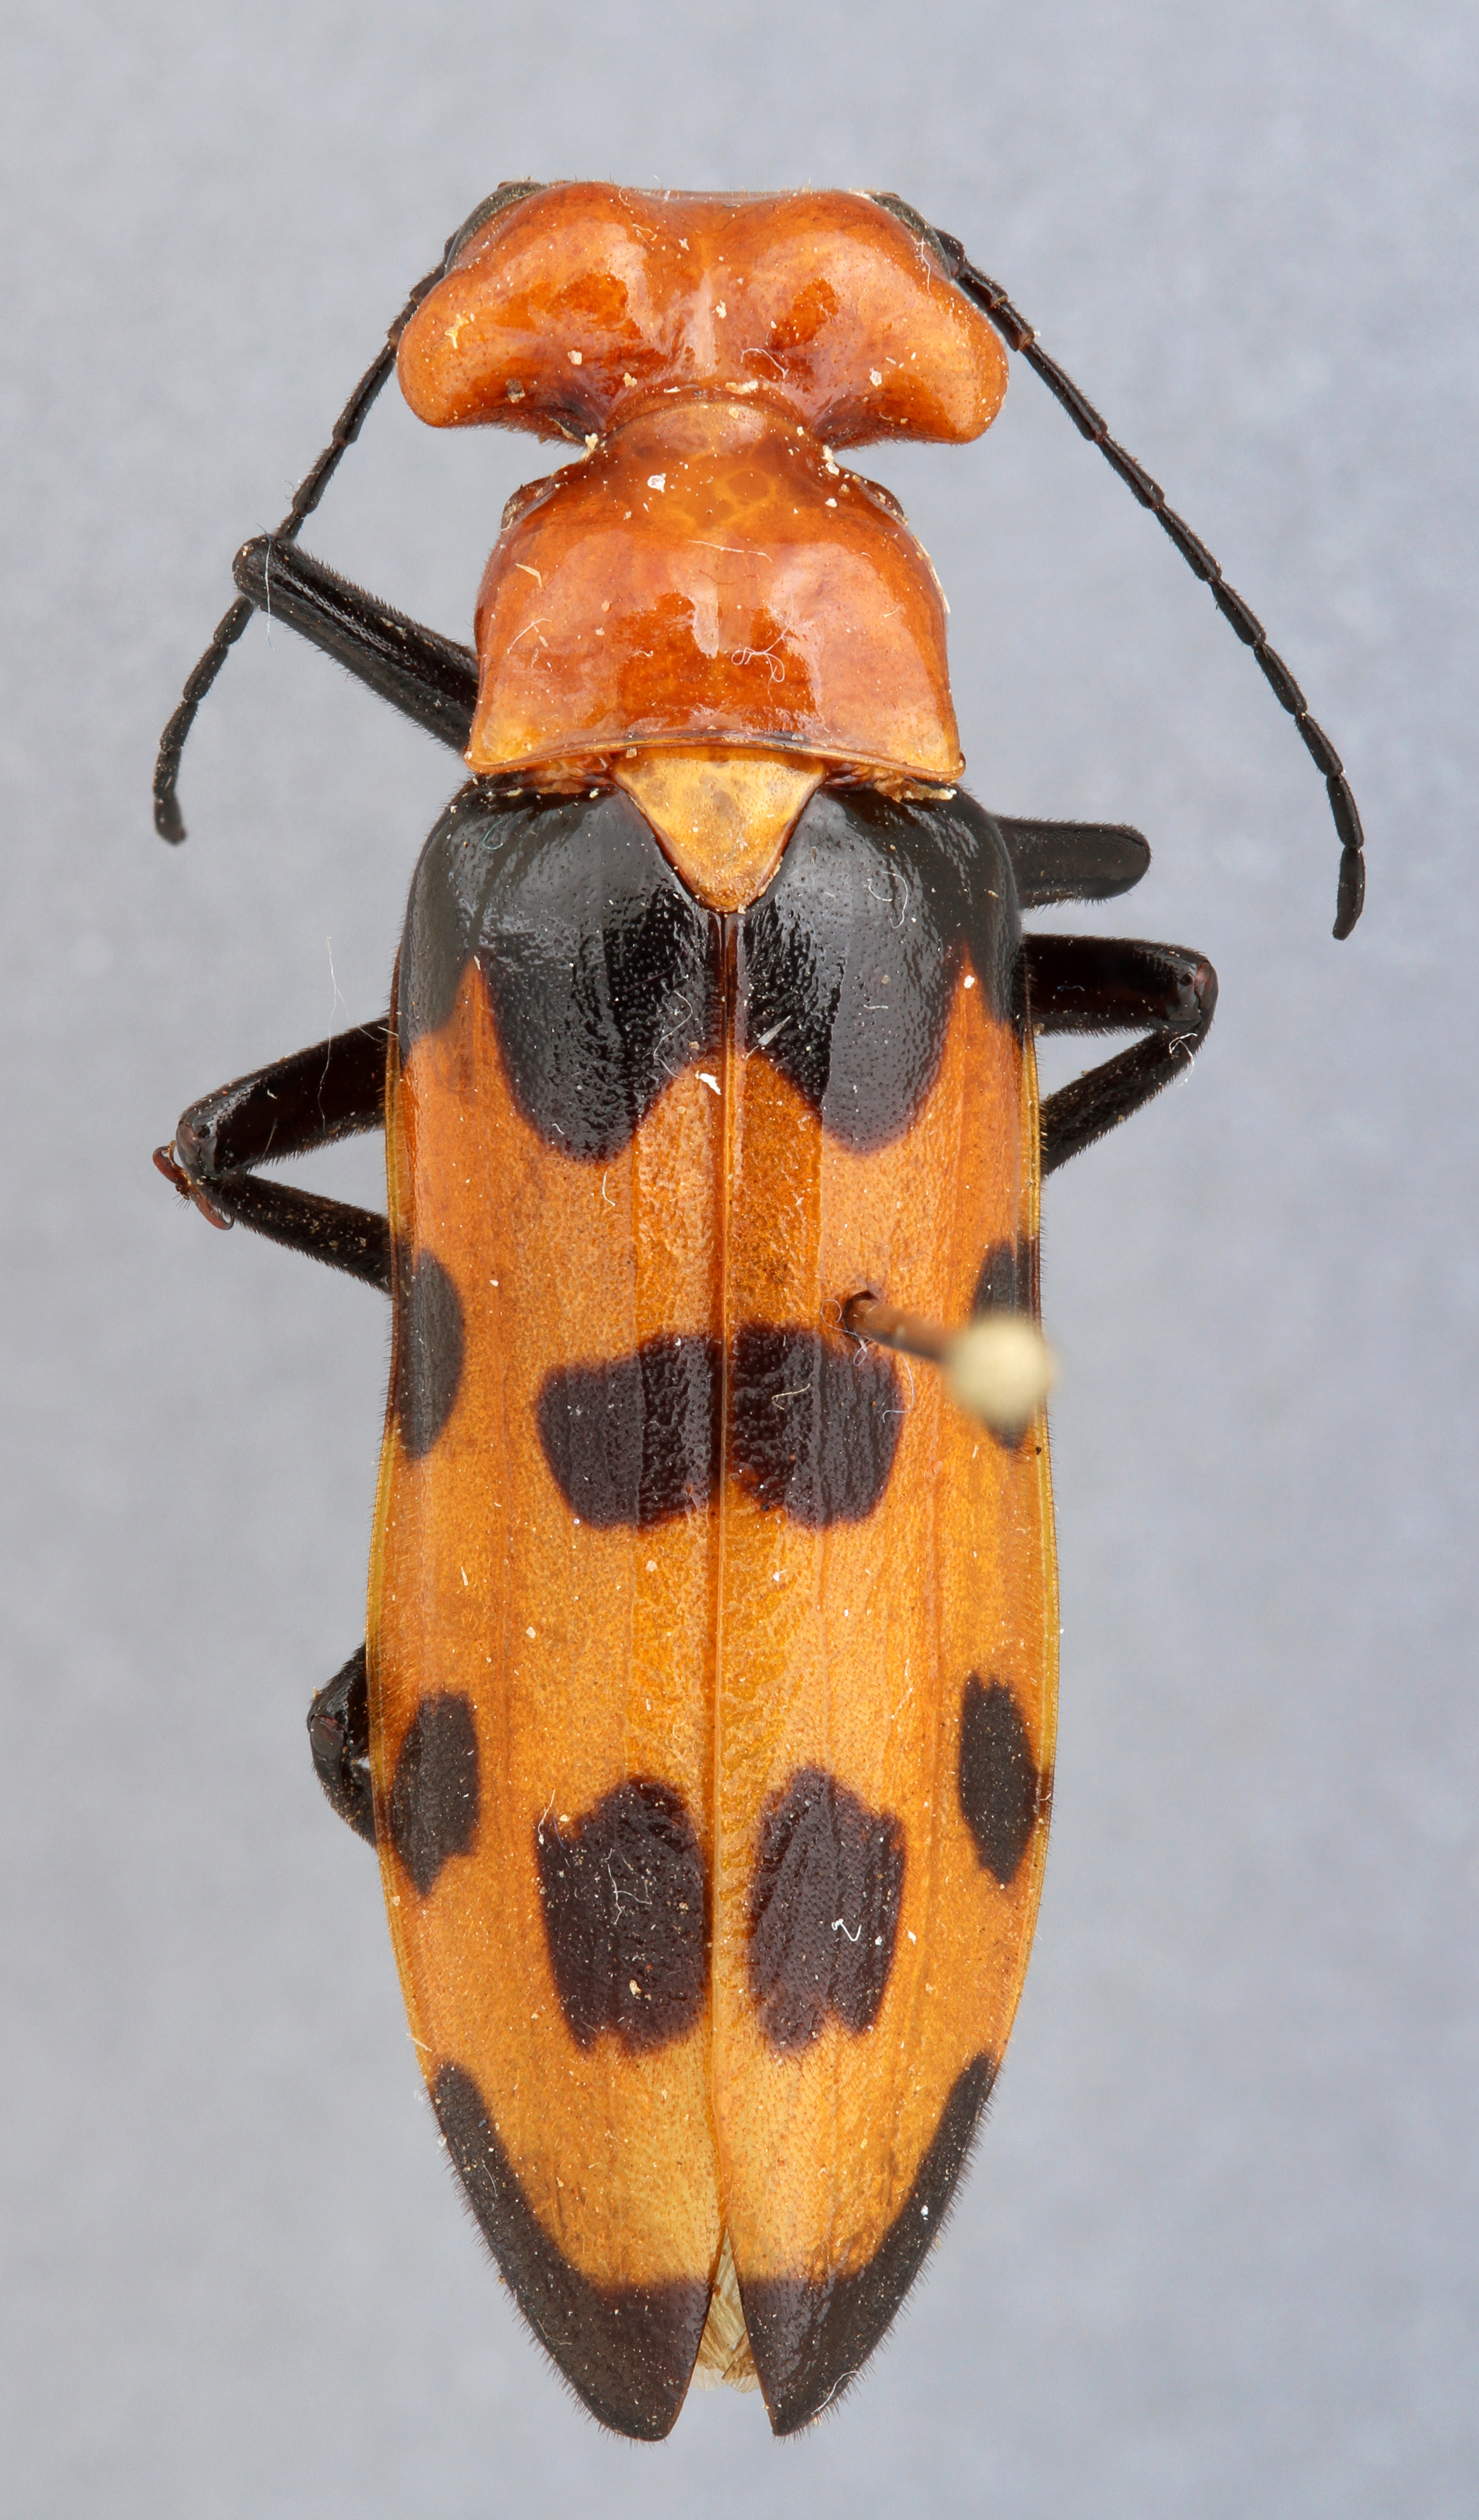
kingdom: Animalia
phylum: Arthropoda
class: Insecta
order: Coleoptera
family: Meloidae
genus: Cissites
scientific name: Cissites auriculata
